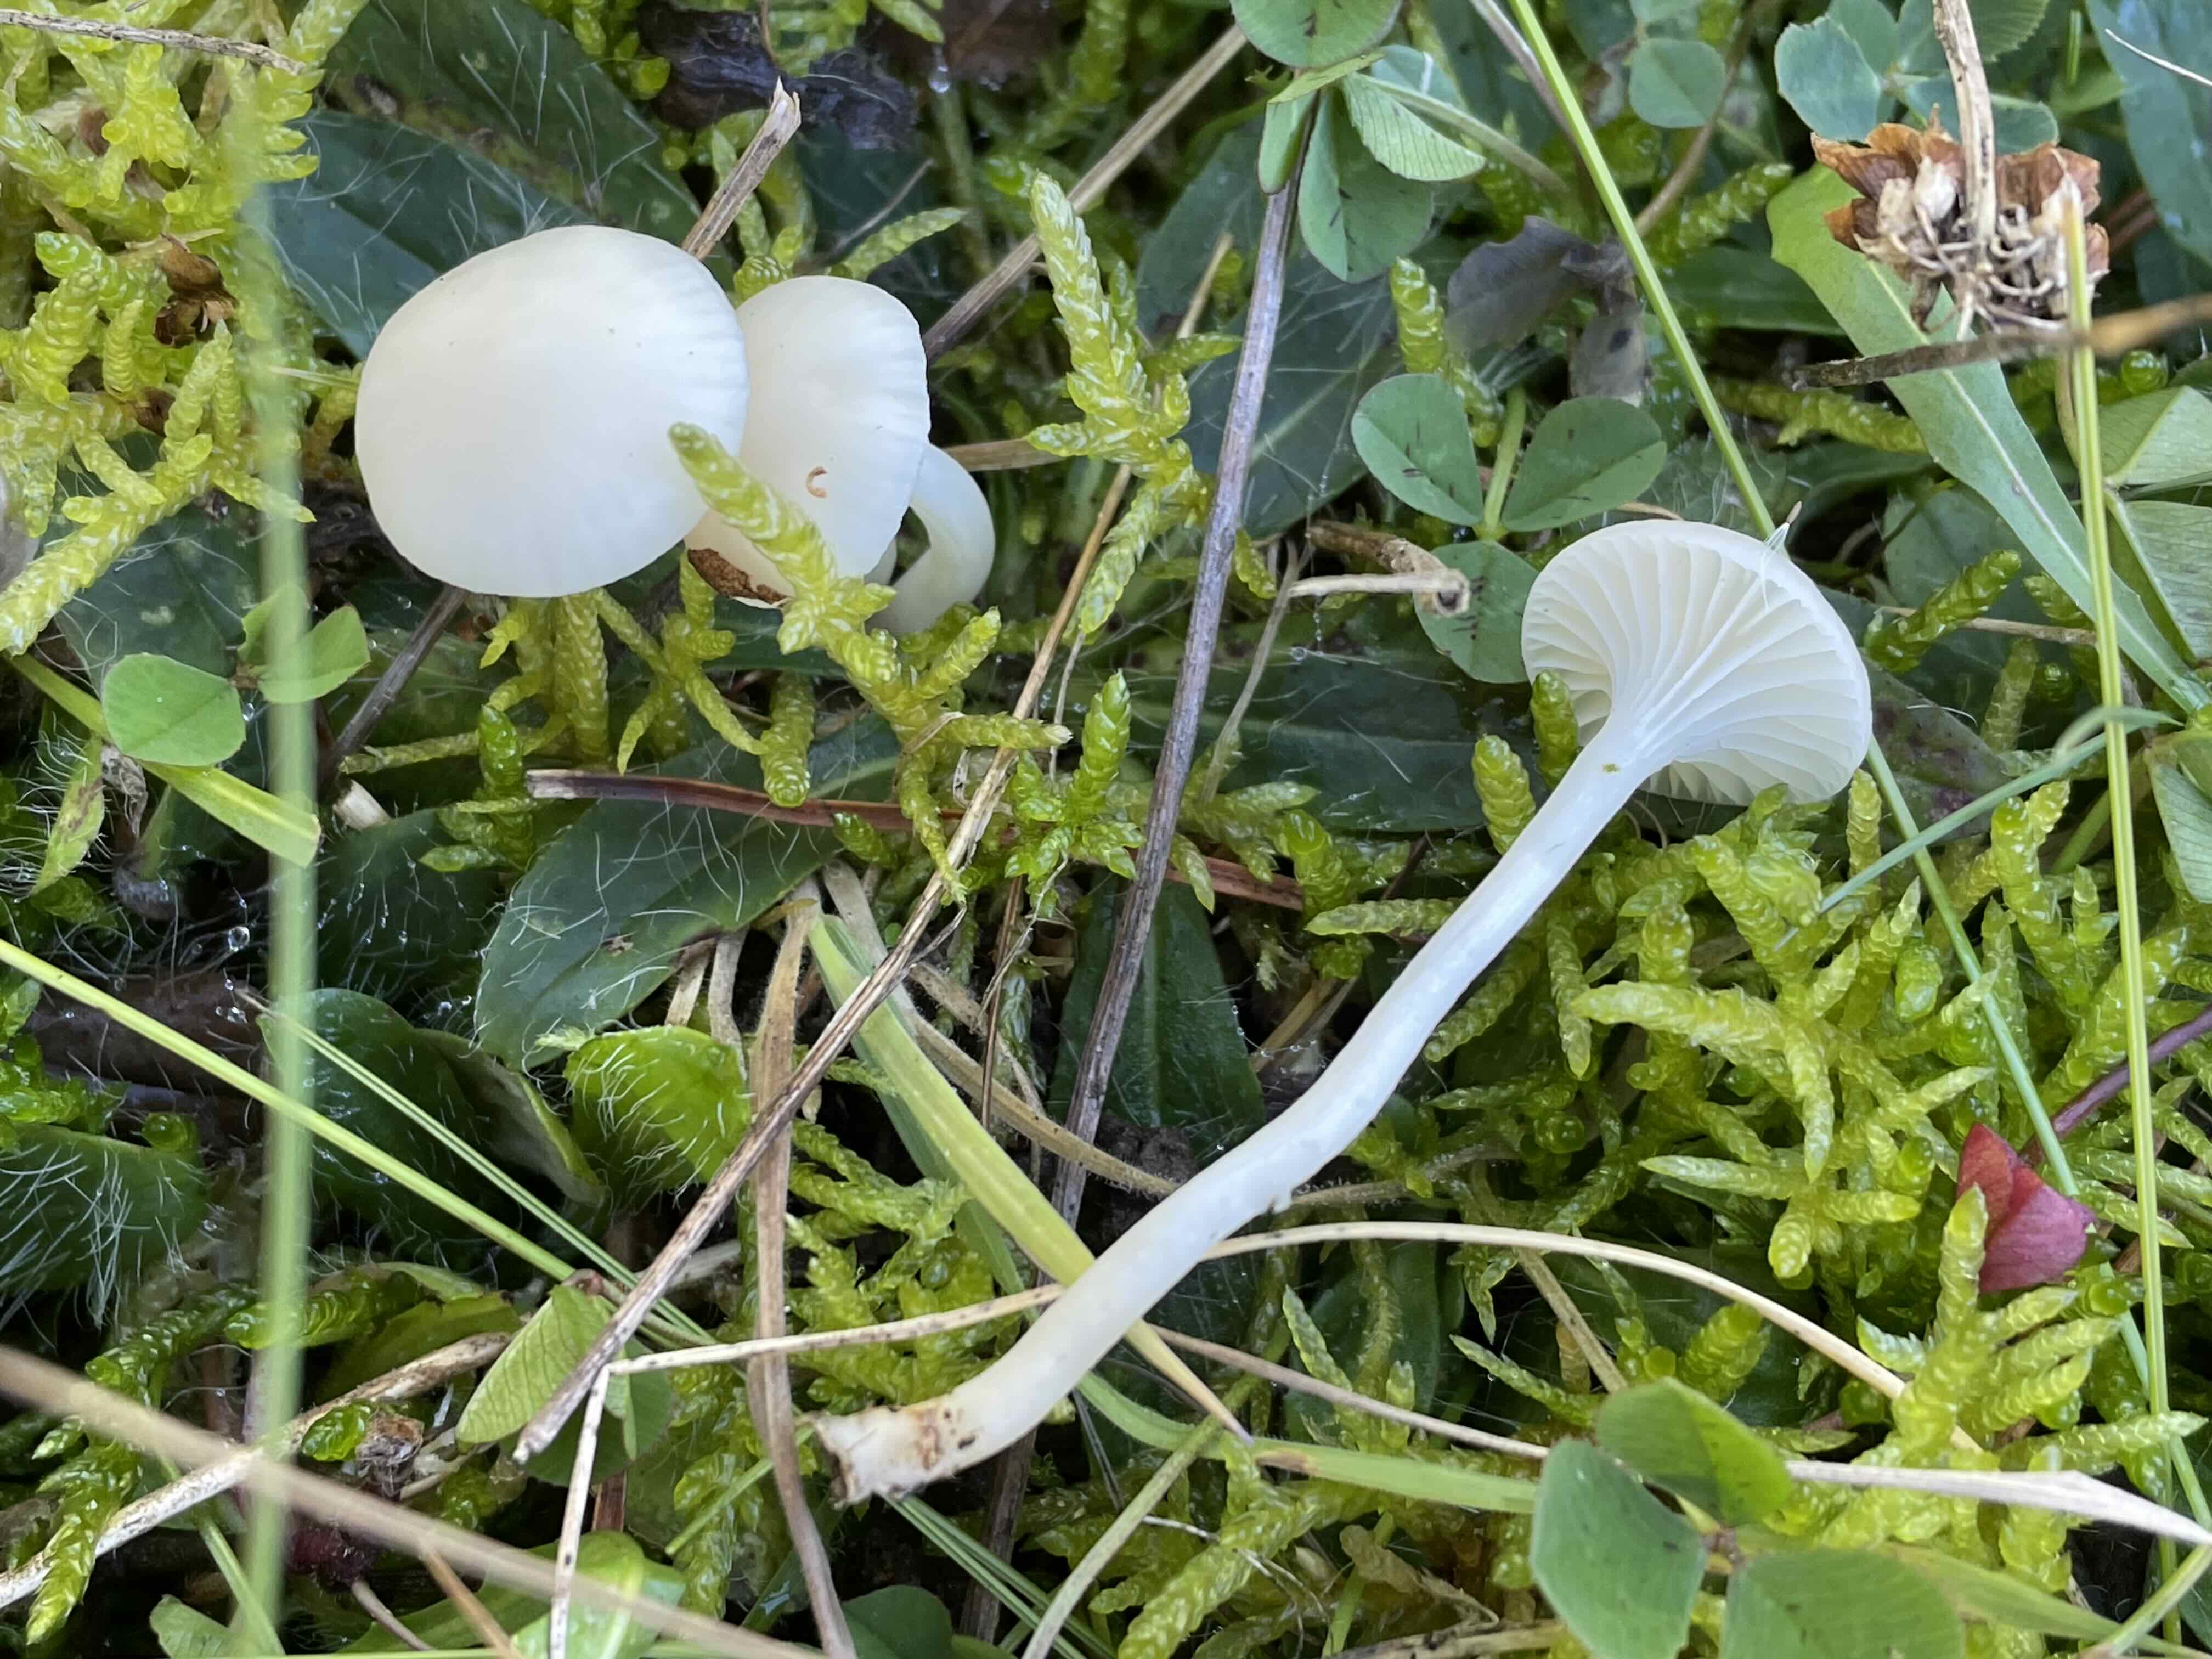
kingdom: Fungi
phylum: Basidiomycota
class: Agaricomycetes
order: Agaricales
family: Hygrophoraceae
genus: Cuphophyllus
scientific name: Cuphophyllus virgineus
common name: snehvid vokshat
